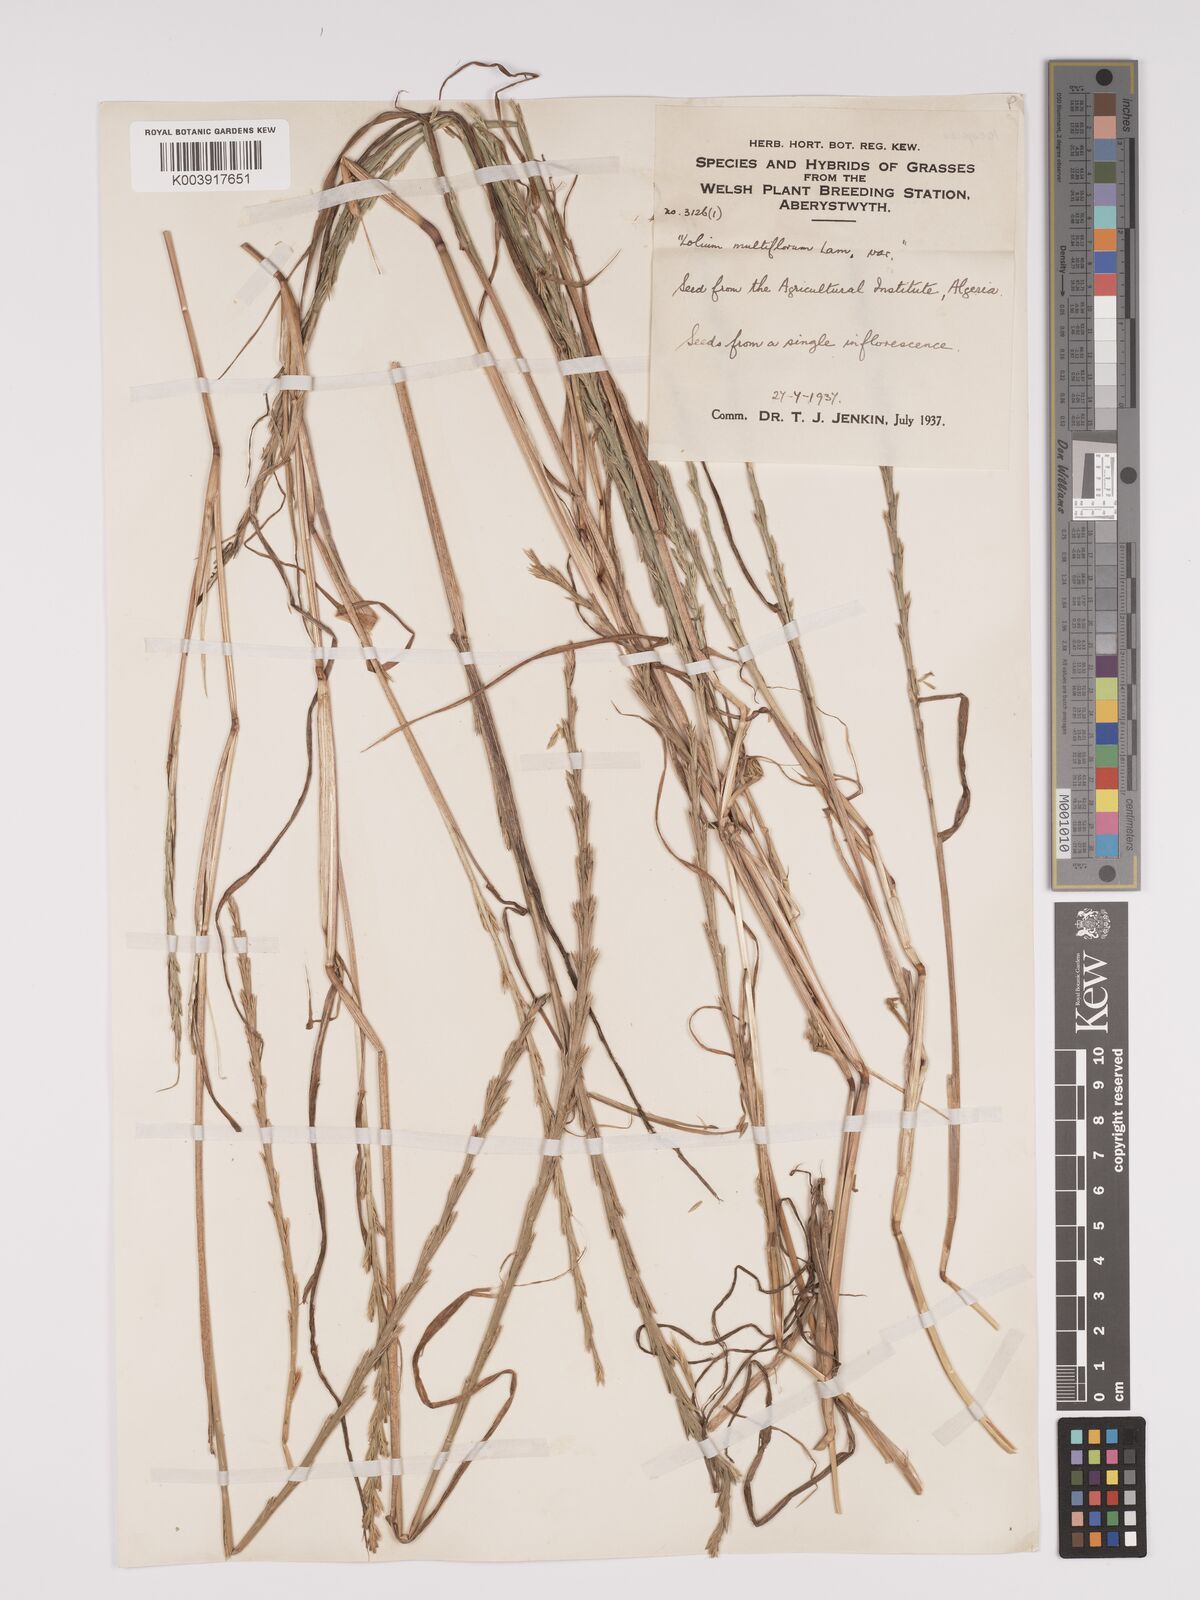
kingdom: Plantae
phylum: Tracheophyta
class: Liliopsida
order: Poales
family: Poaceae
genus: Lolium
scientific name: Lolium multiflorum
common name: Annual ryegrass
